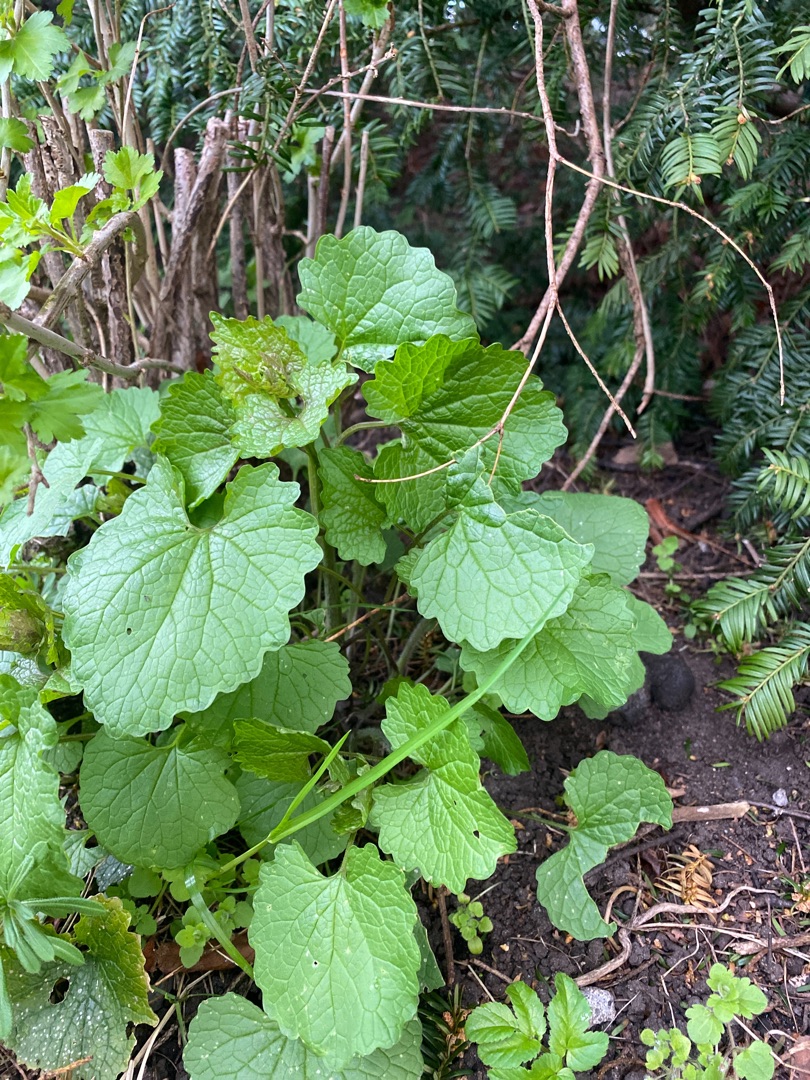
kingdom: Plantae
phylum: Tracheophyta
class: Magnoliopsida
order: Brassicales
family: Brassicaceae
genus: Alliaria
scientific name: Alliaria petiolata
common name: Løgkarse
